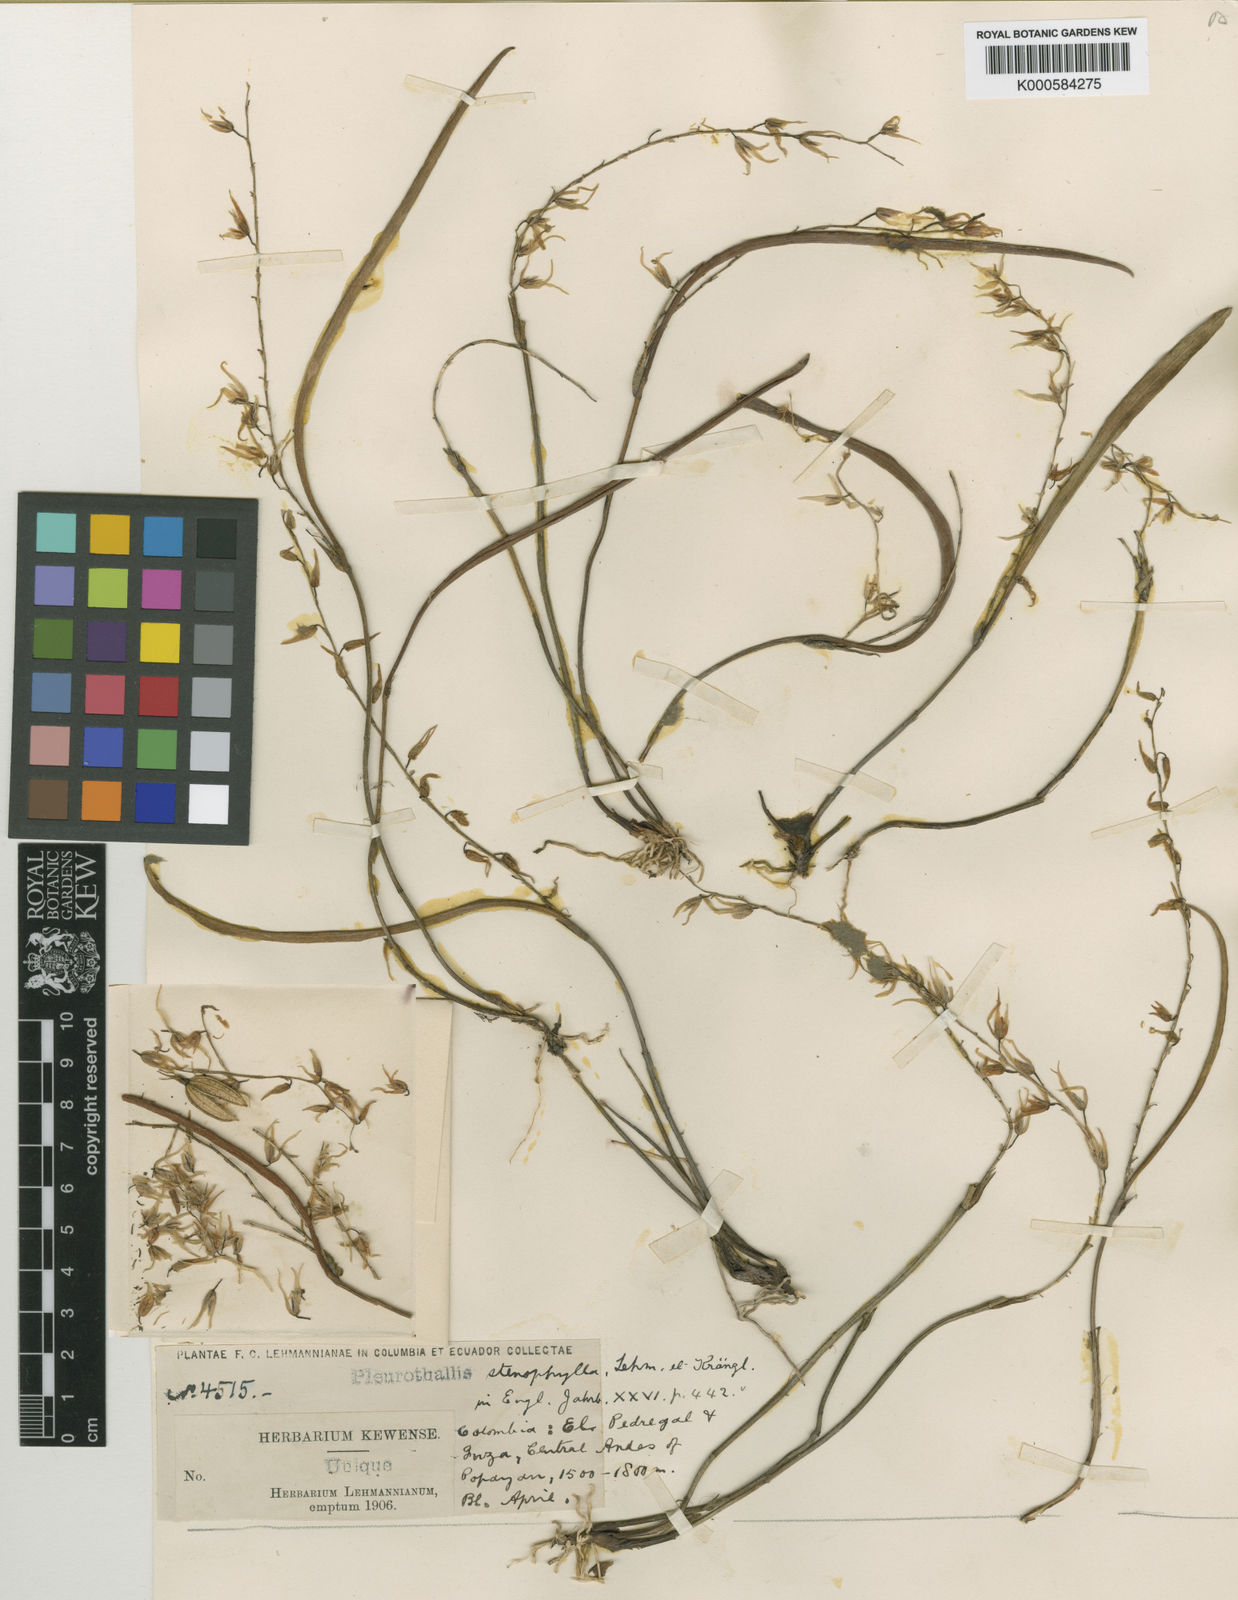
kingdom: Plantae
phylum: Tracheophyta
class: Liliopsida
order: Asparagales
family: Orchidaceae
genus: Stelis
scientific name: Stelis melanopus
